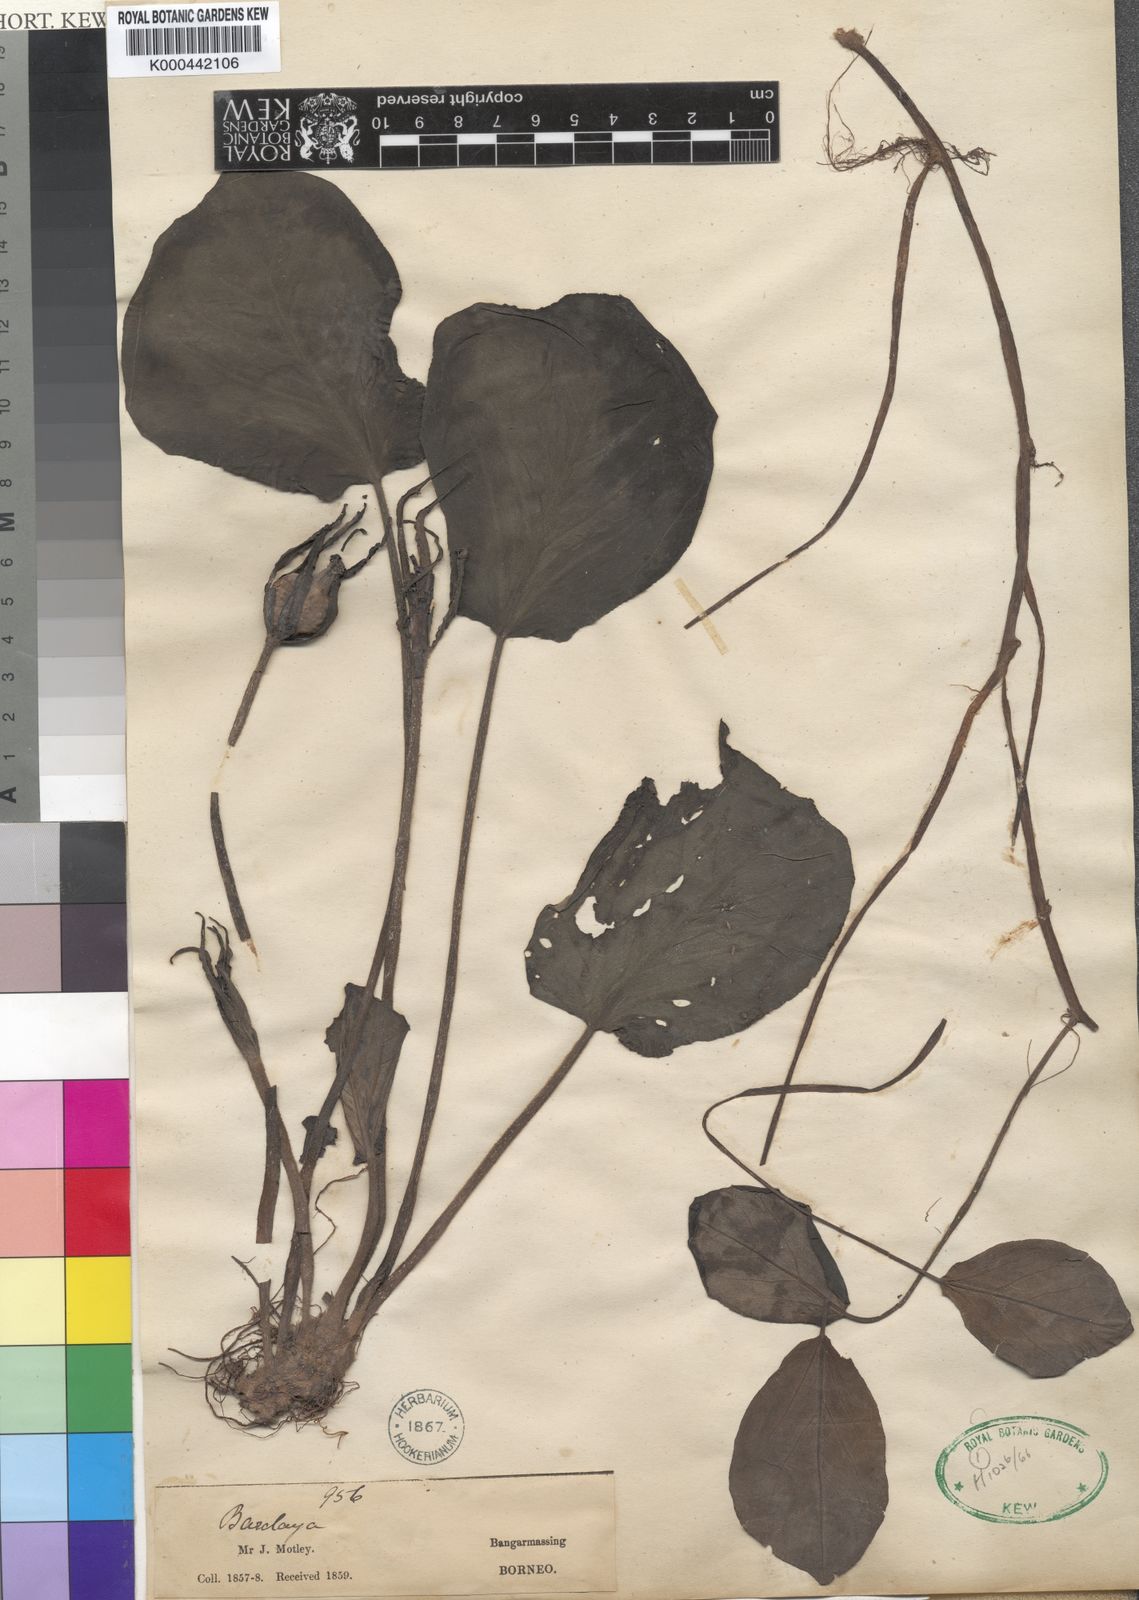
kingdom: Plantae
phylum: Tracheophyta
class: Magnoliopsida
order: Nymphaeales
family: Nymphaeaceae
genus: Barclaya
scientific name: Barclaya motleyi
